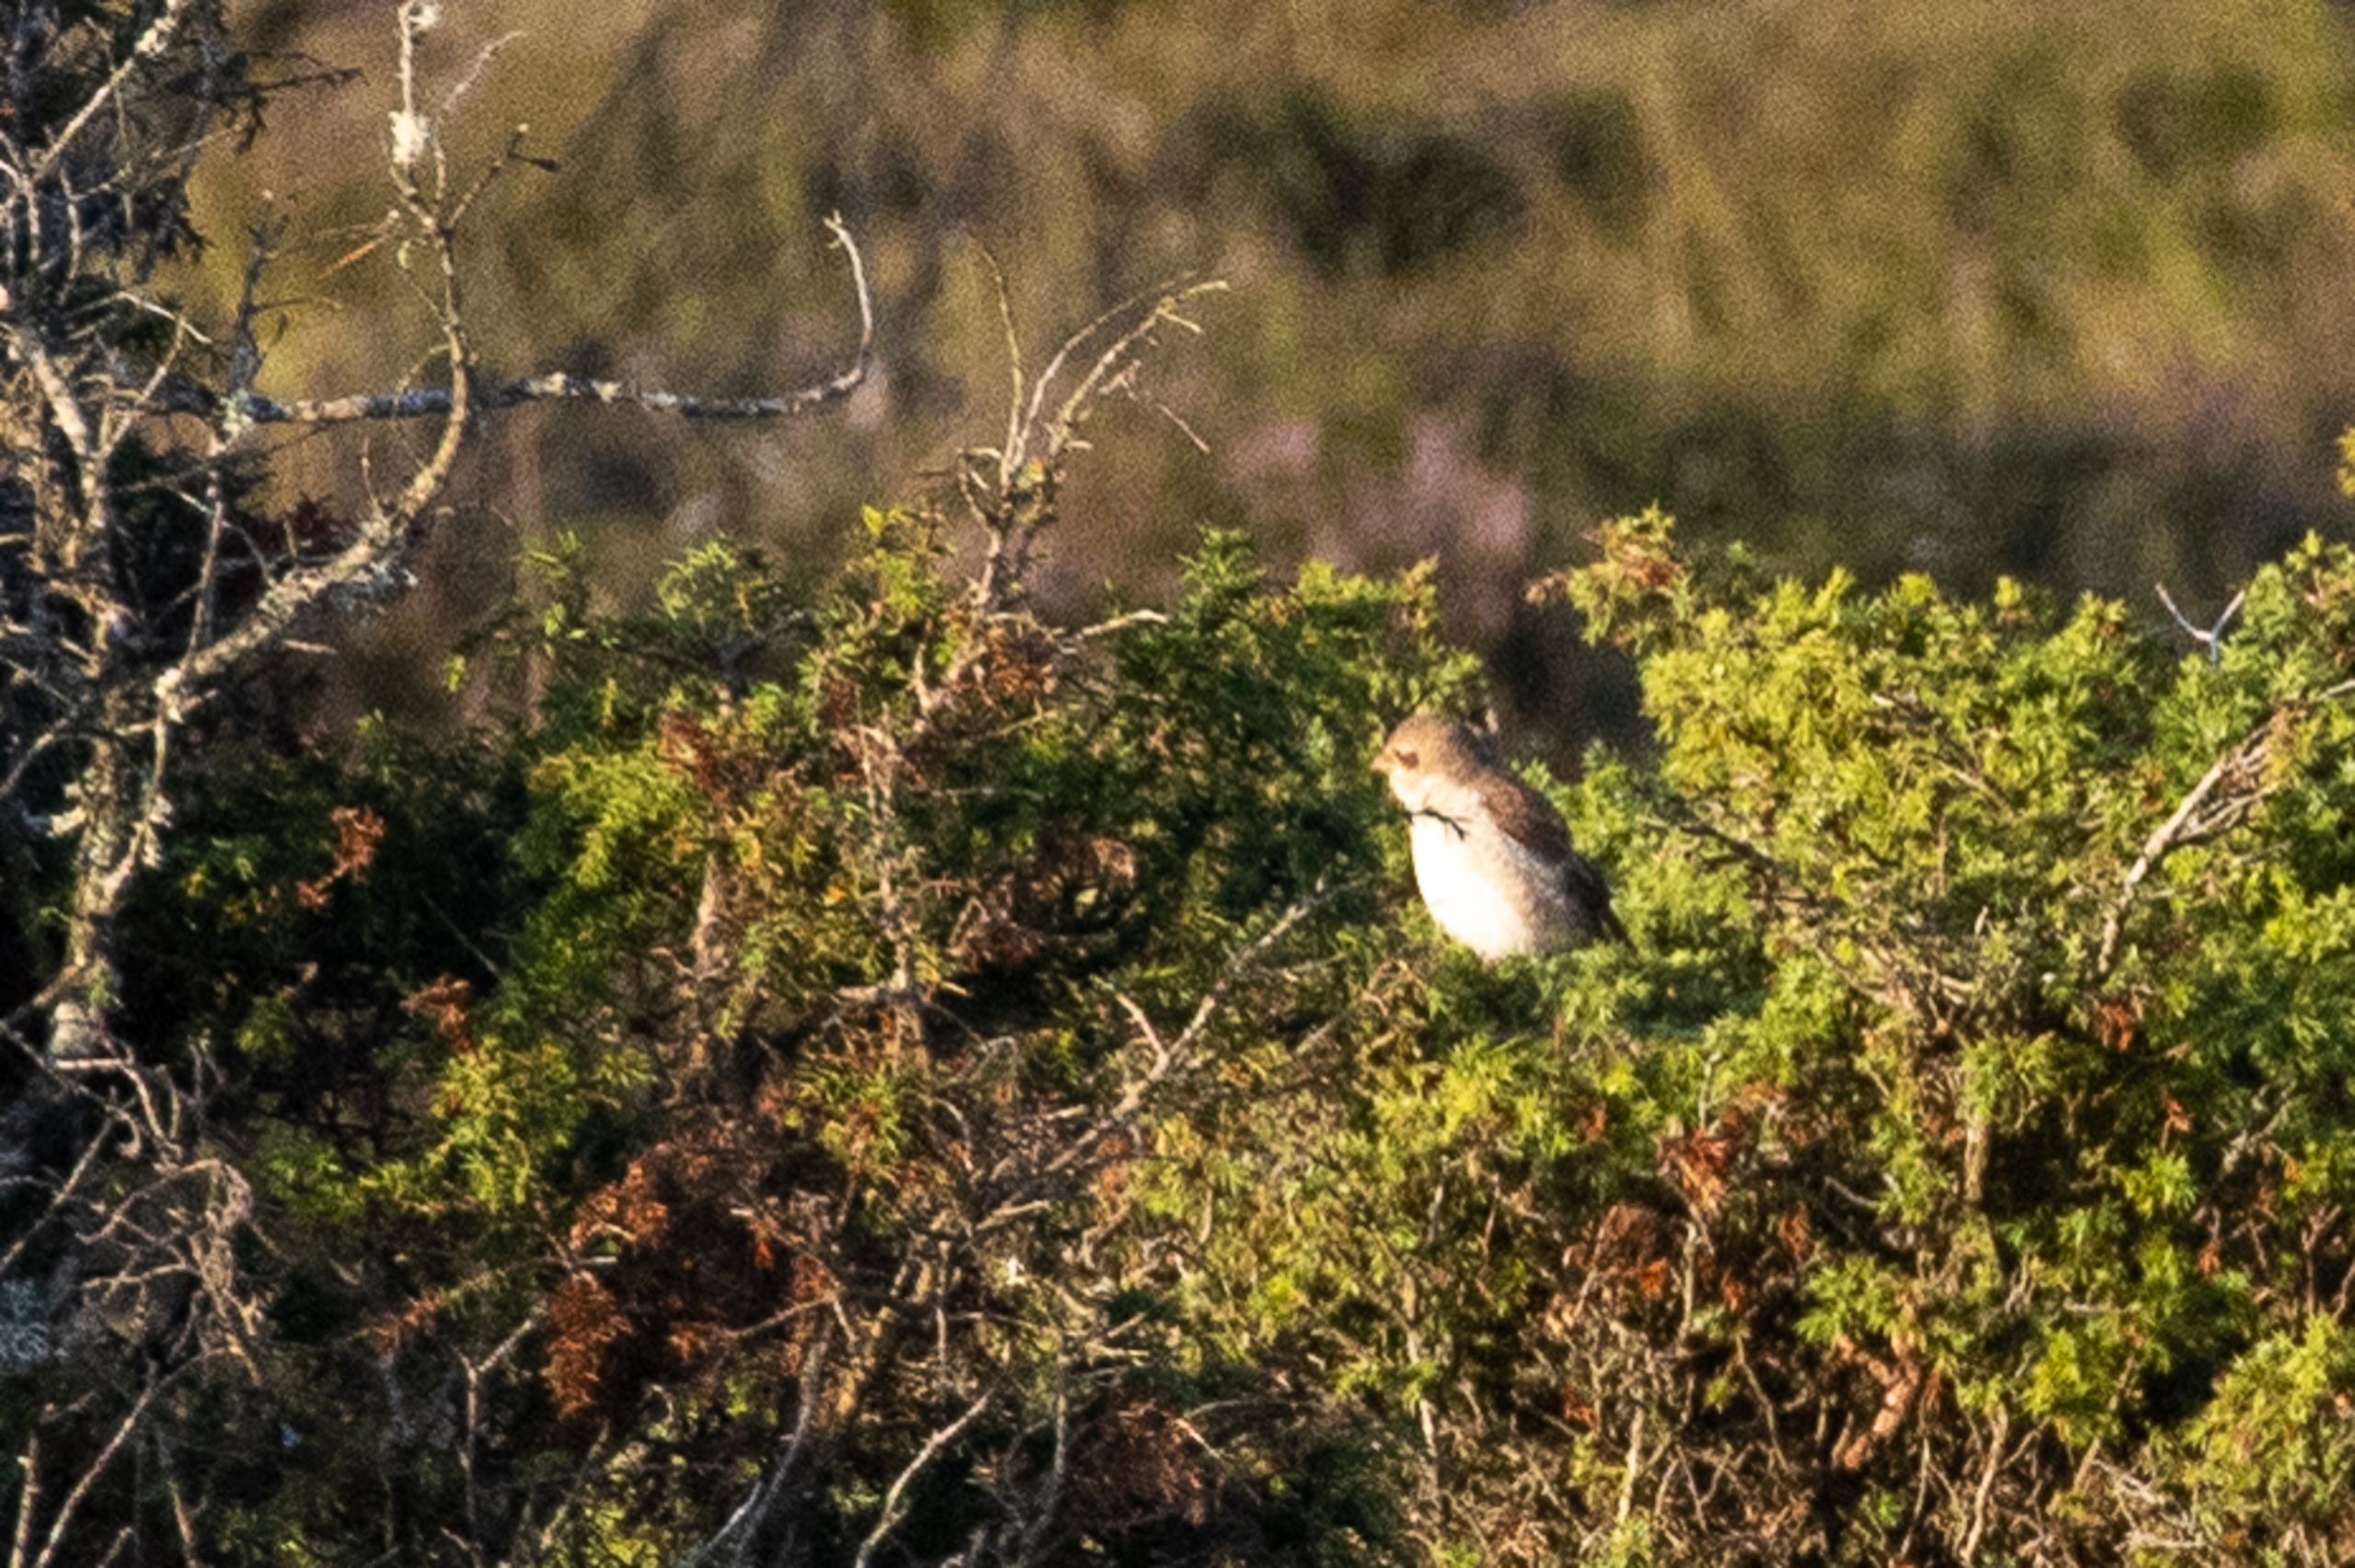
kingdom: Animalia
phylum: Chordata
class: Aves
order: Passeriformes
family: Laniidae
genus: Lanius
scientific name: Lanius collurio
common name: Rødrygget tornskade
